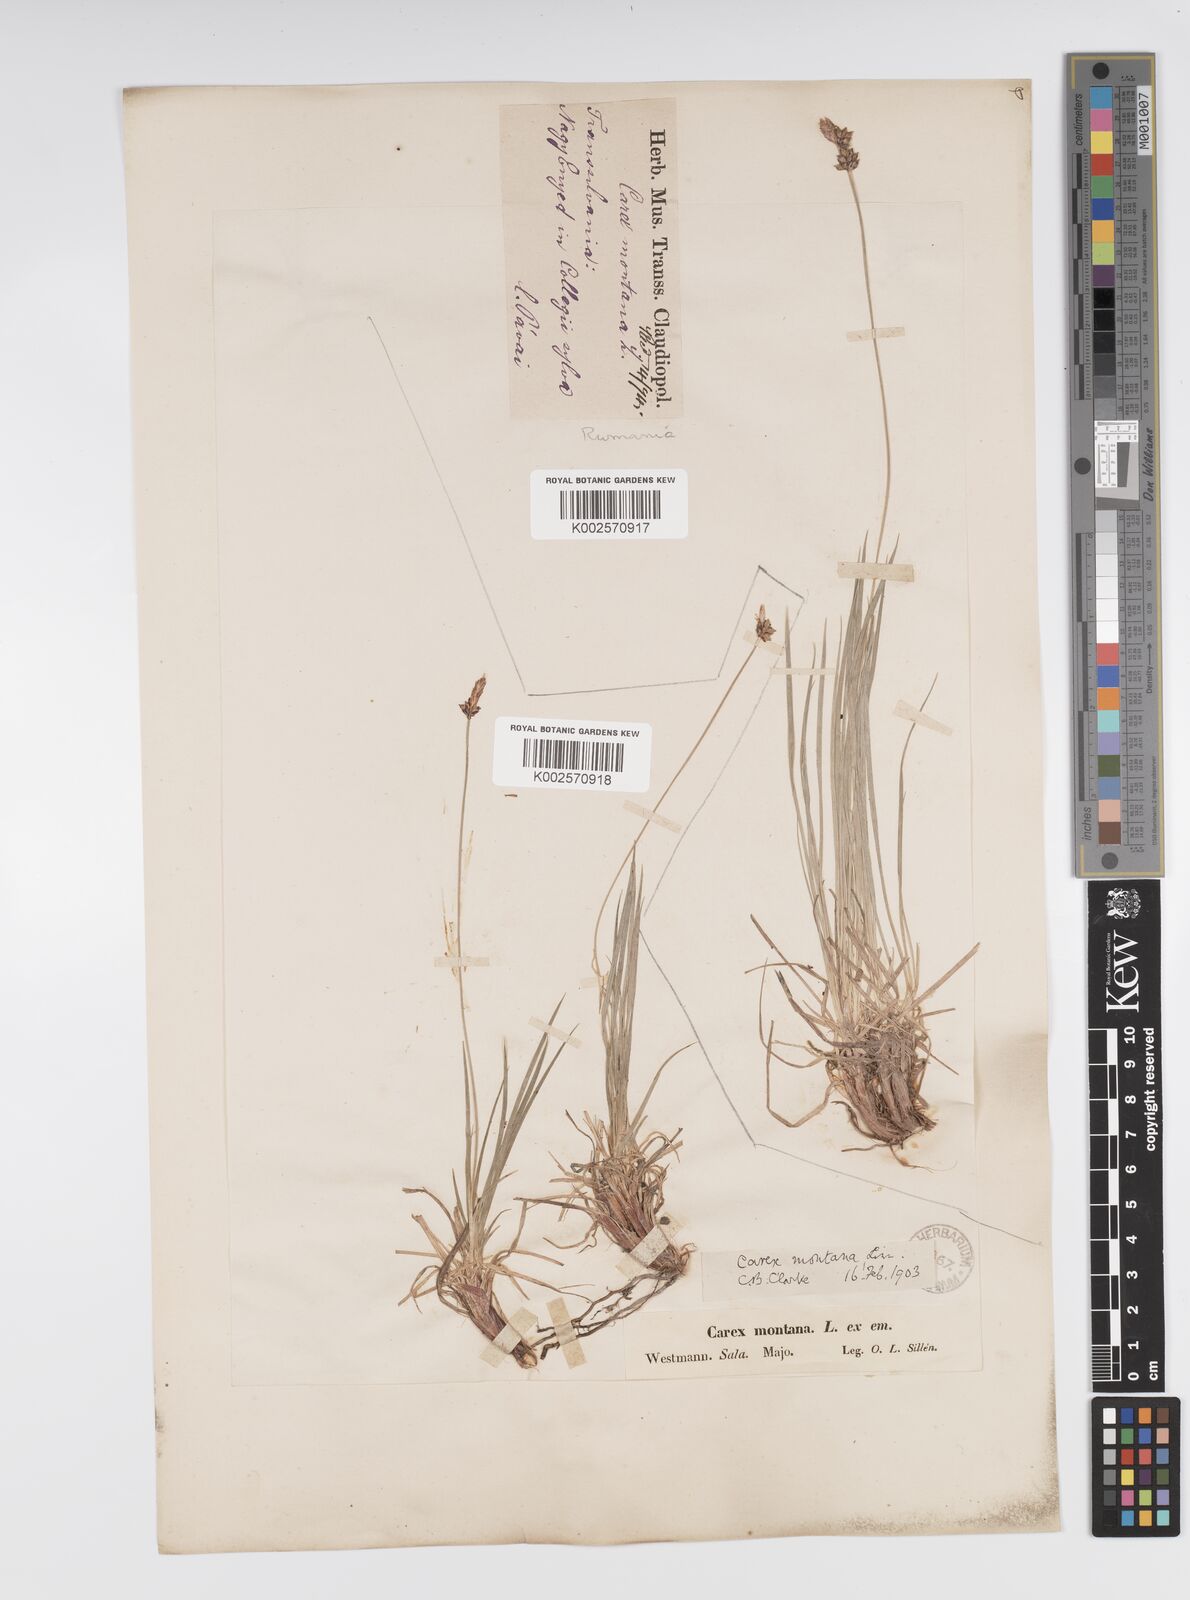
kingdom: Plantae
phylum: Tracheophyta
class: Liliopsida
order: Poales
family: Cyperaceae
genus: Carex
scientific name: Carex montana
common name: Soft-leaved sedge
